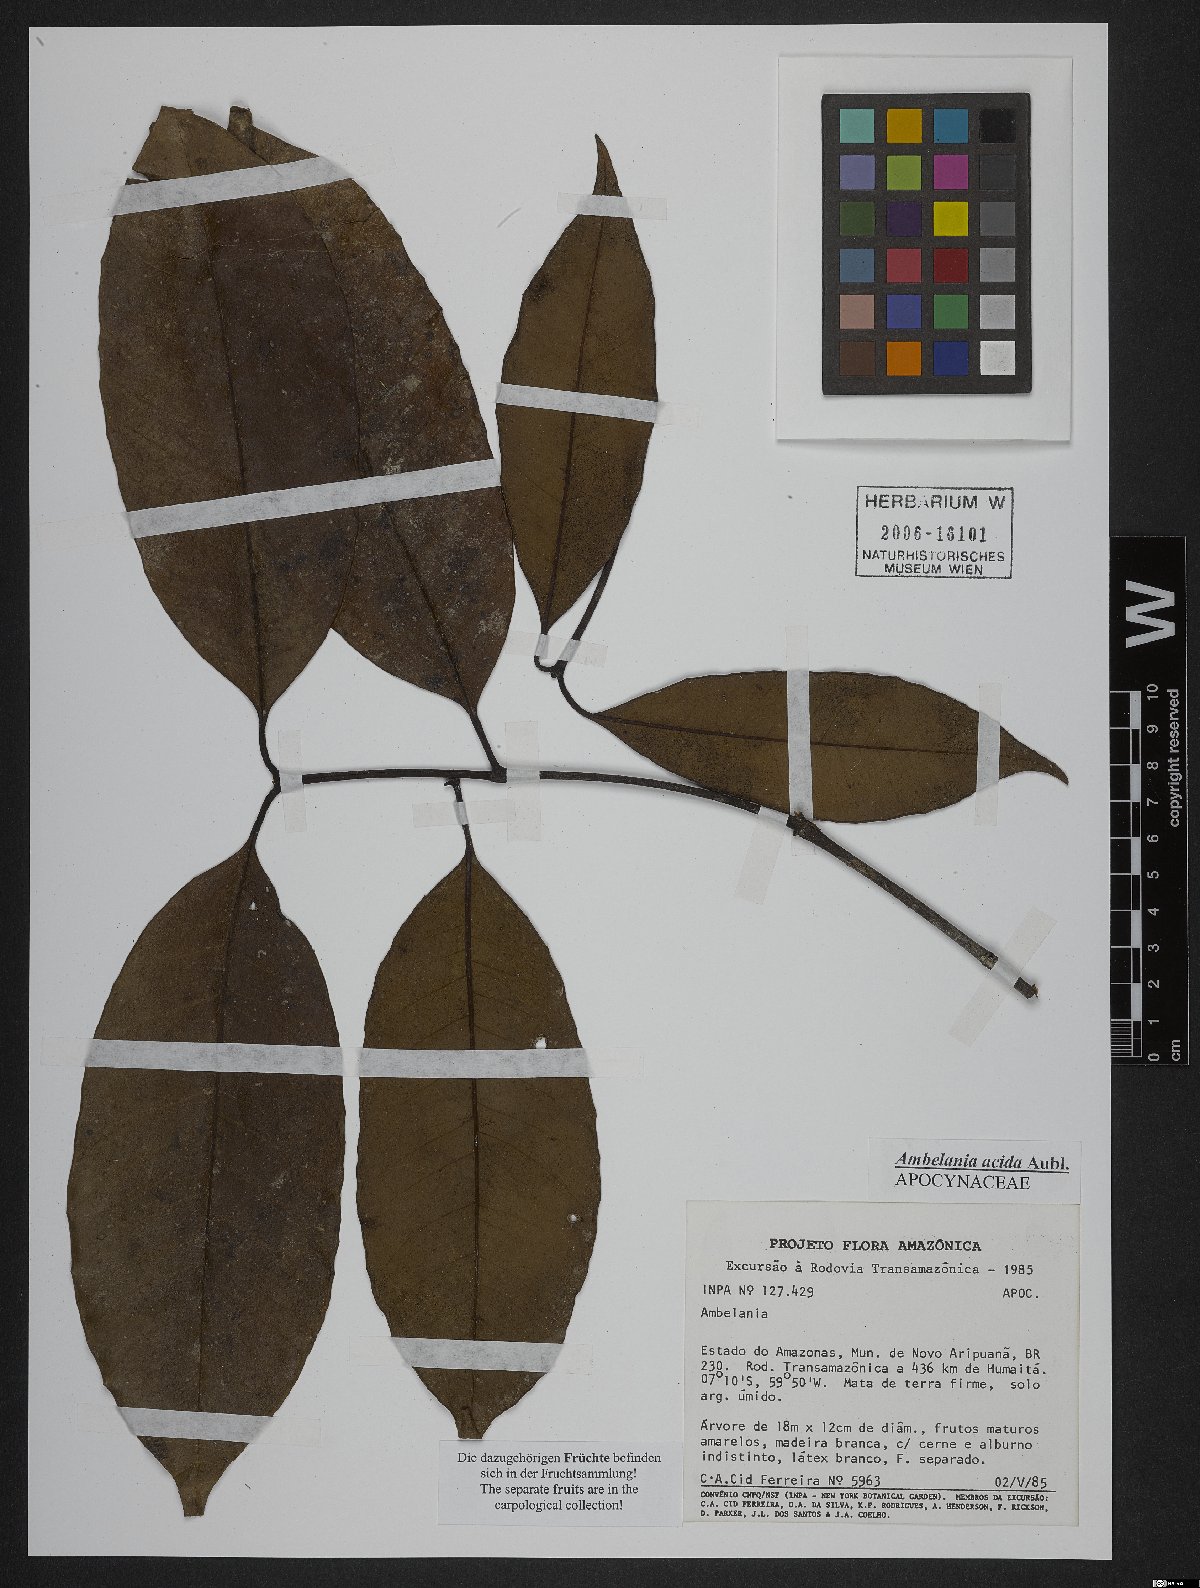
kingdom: Plantae
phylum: Tracheophyta
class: Magnoliopsida
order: Gentianales
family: Apocynaceae
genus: Ambelania
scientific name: Ambelania acida
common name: Bagasse
